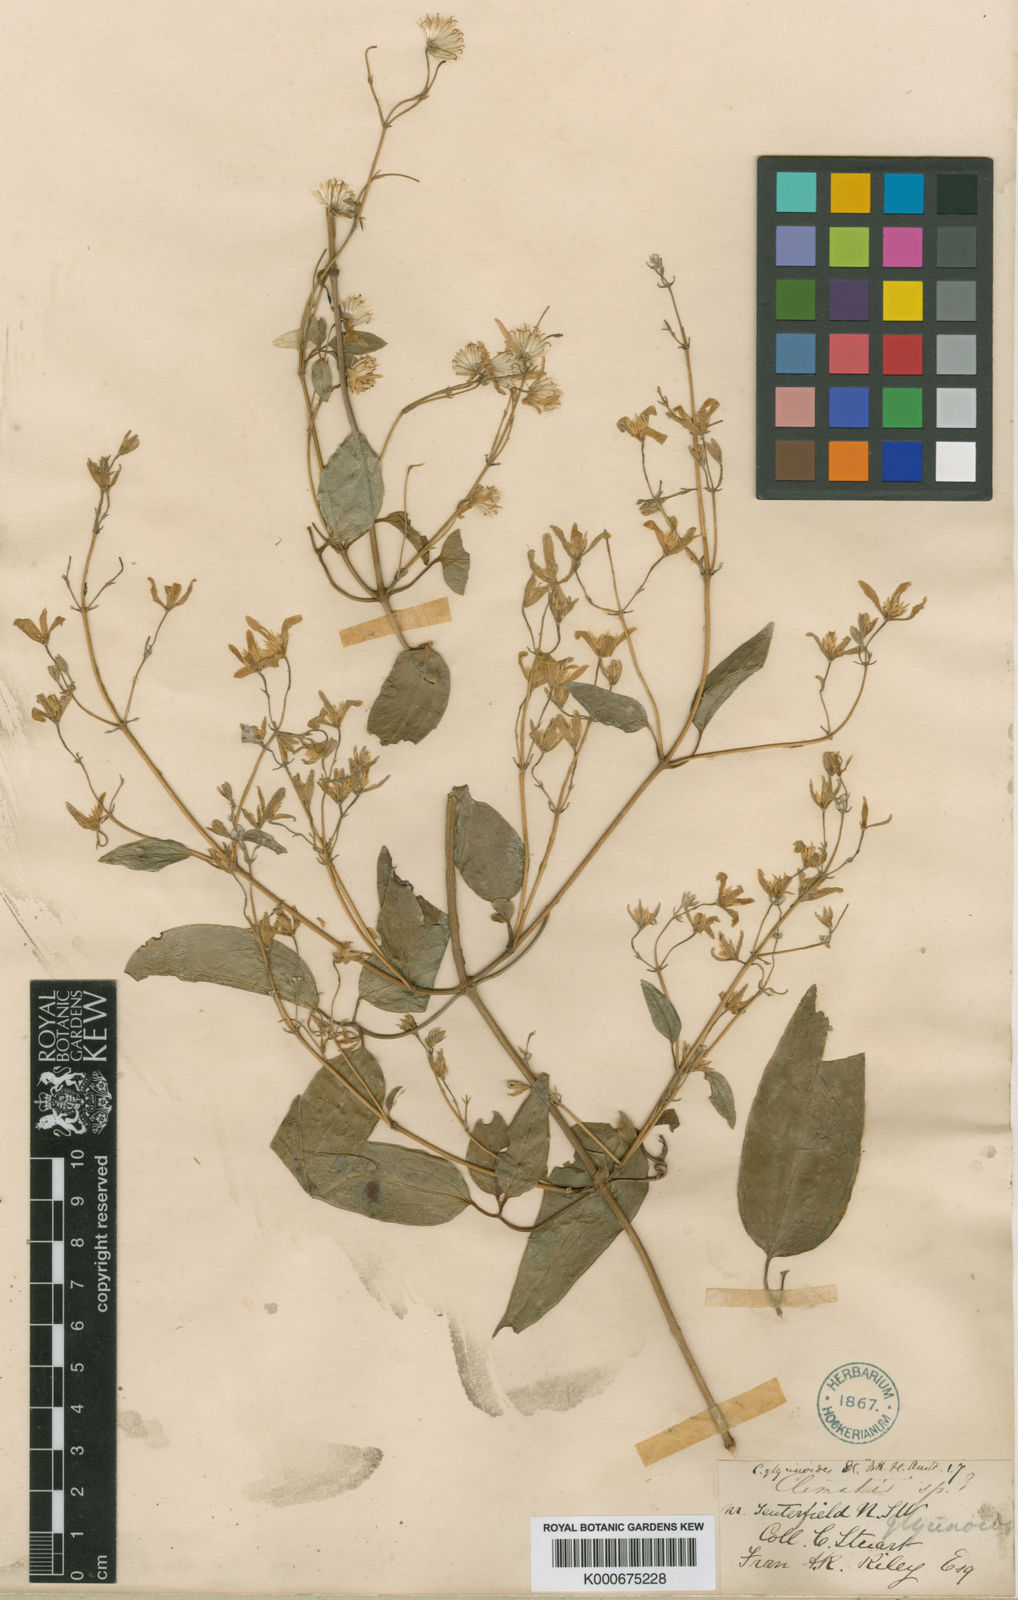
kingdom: Plantae
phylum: Tracheophyta
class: Magnoliopsida
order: Ranunculales
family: Ranunculaceae
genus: Clematis
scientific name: Clematis glycinoides
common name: Forest clematis
